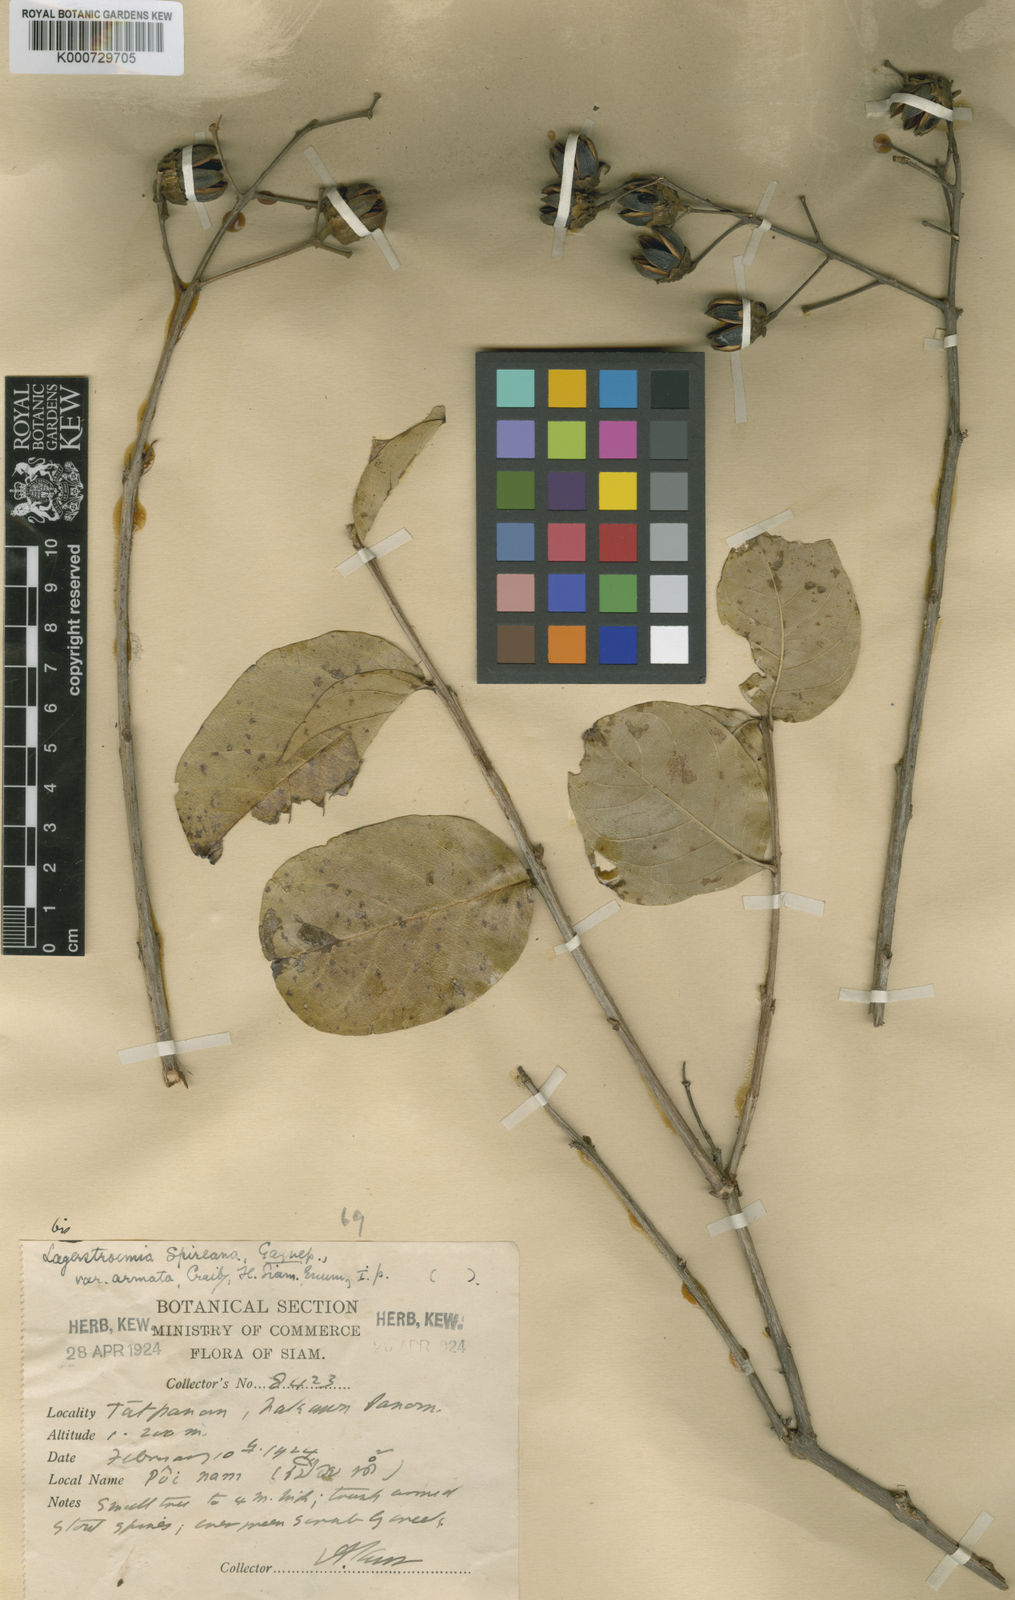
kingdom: Plantae
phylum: Tracheophyta
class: Magnoliopsida
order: Myrtales
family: Lythraceae
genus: Lagerstroemia
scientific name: Lagerstroemia spireana
